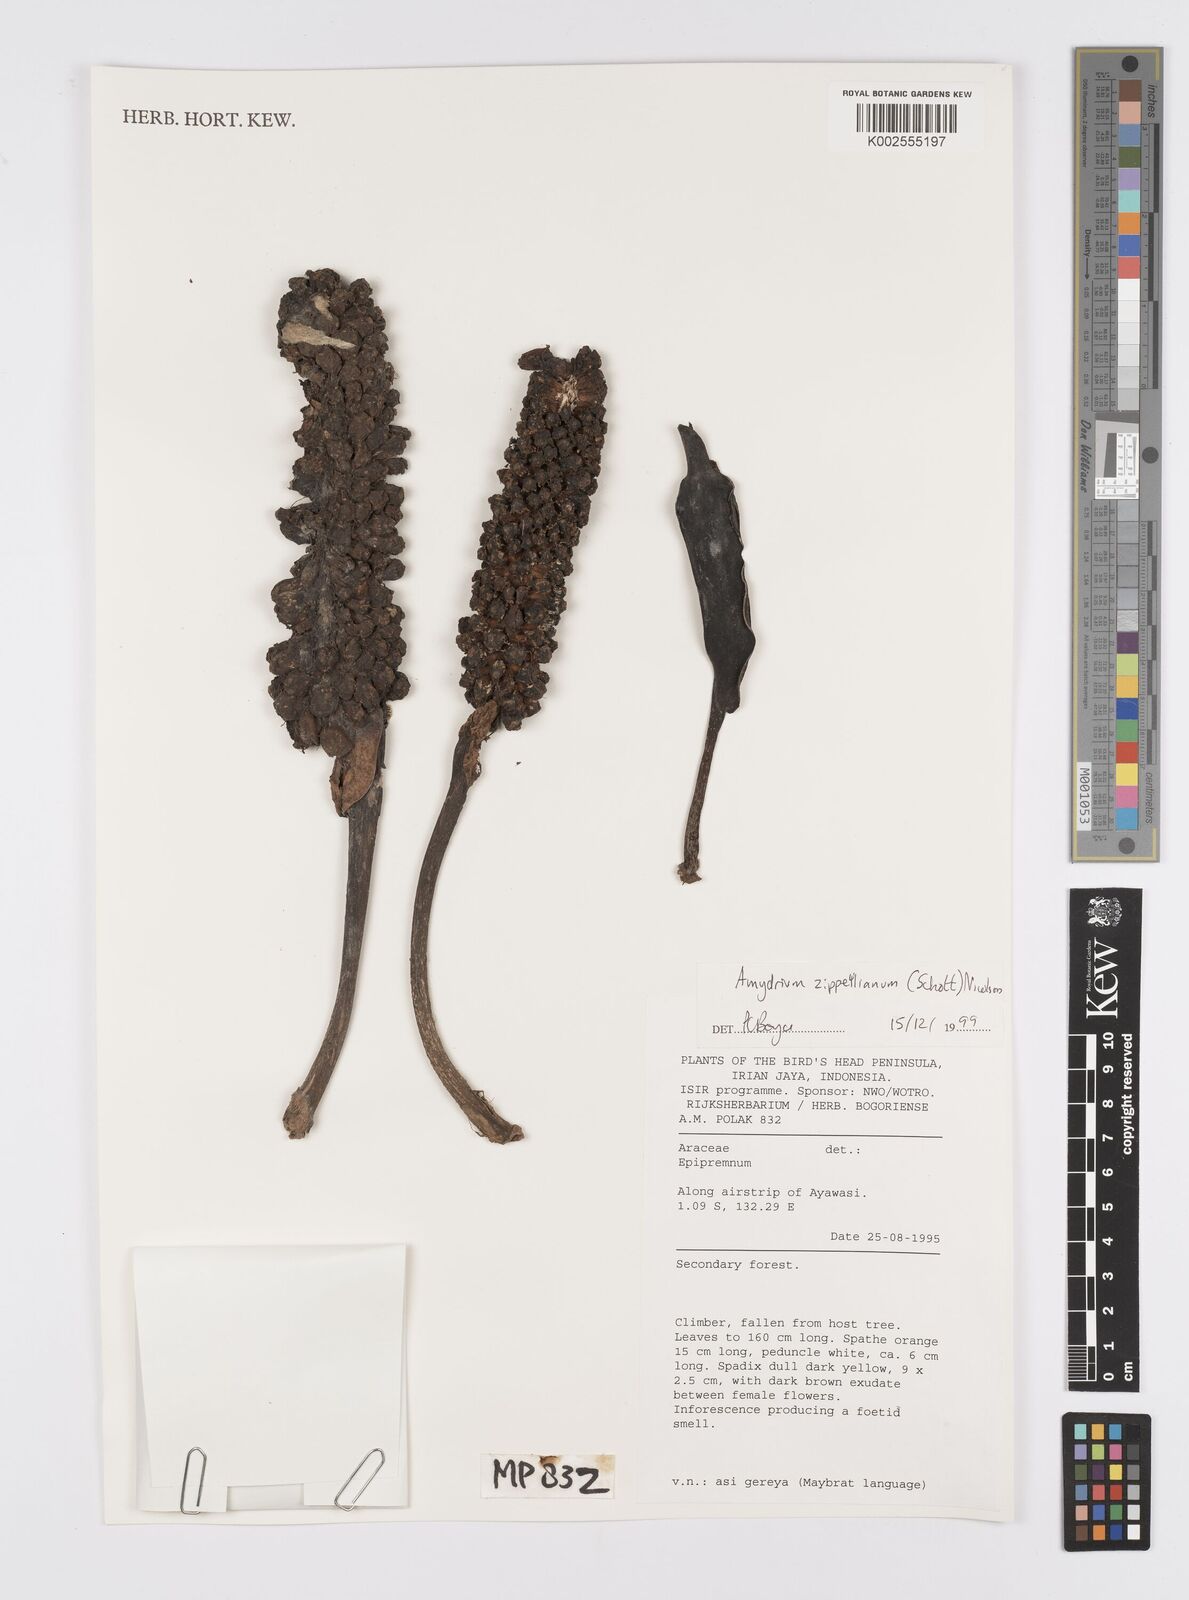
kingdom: Plantae
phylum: Tracheophyta
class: Liliopsida
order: Alismatales
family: Araceae
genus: Amydrium
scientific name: Amydrium zippelianum
